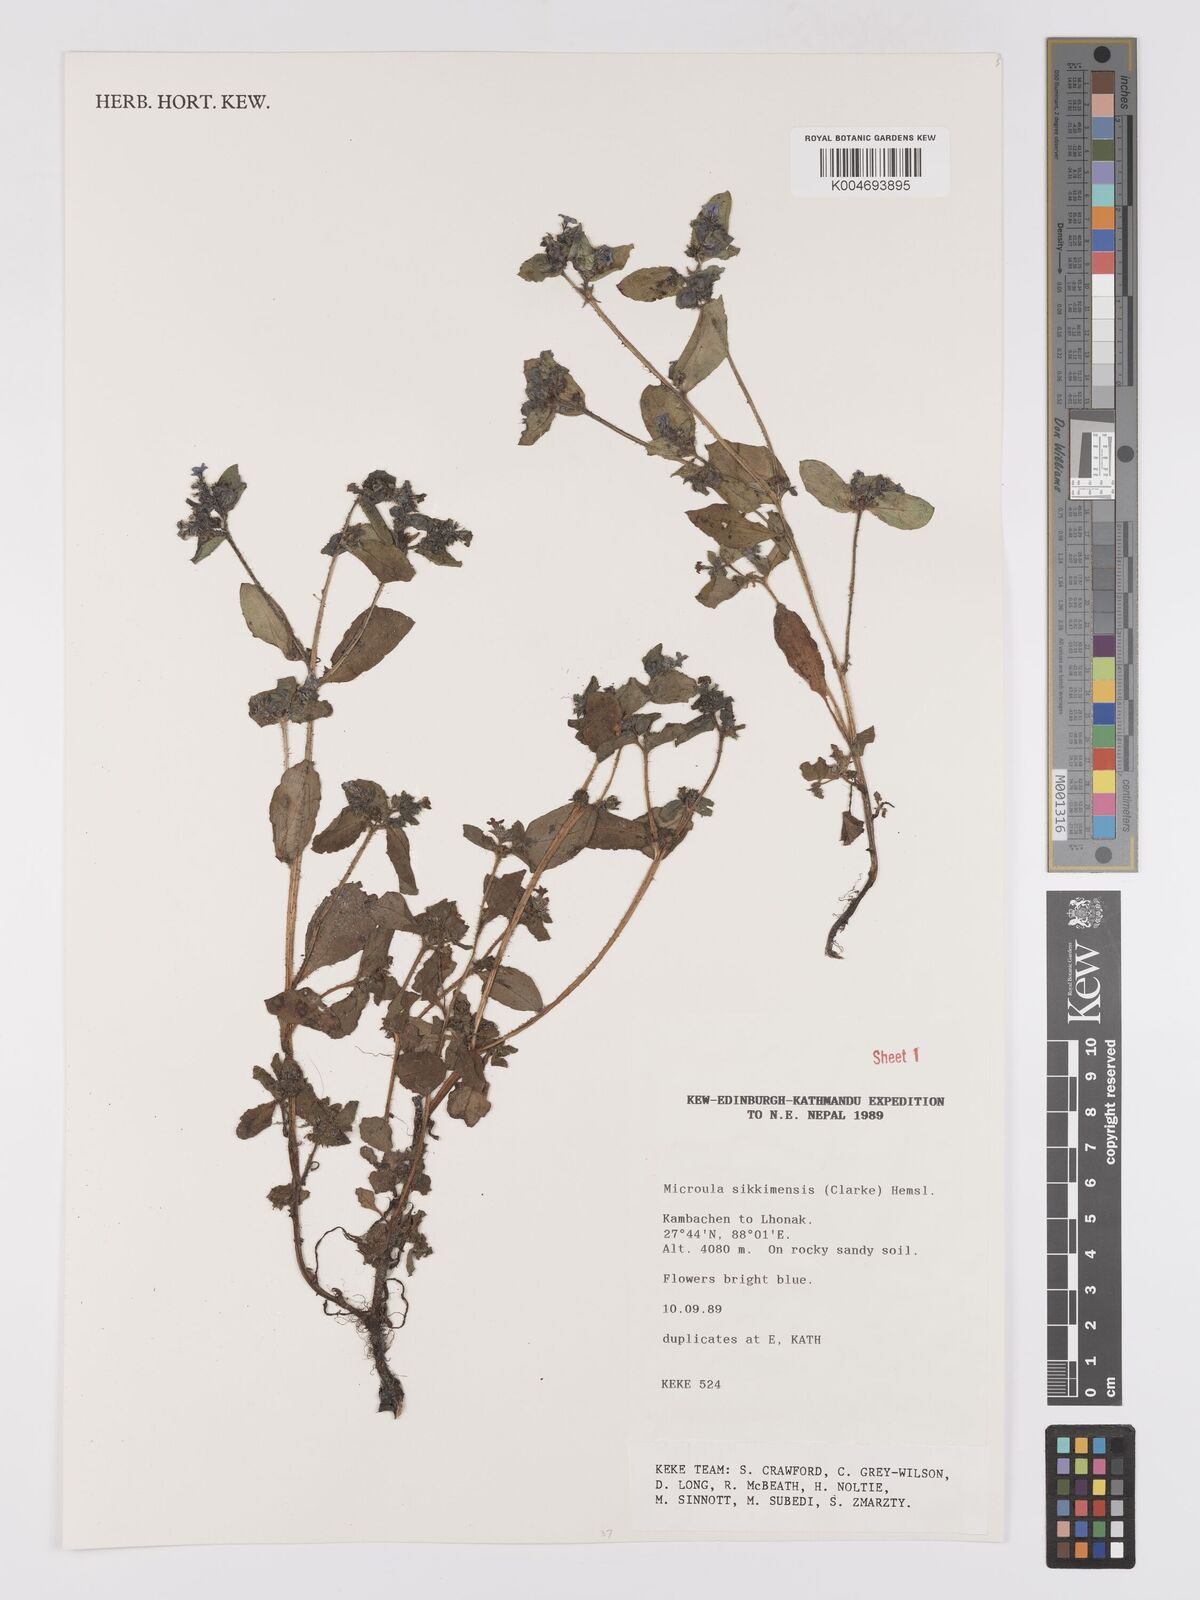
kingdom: Plantae
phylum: Tracheophyta
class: Magnoliopsida
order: Boraginales
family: Boraginaceae
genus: Microula
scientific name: Microula sikkimensis
